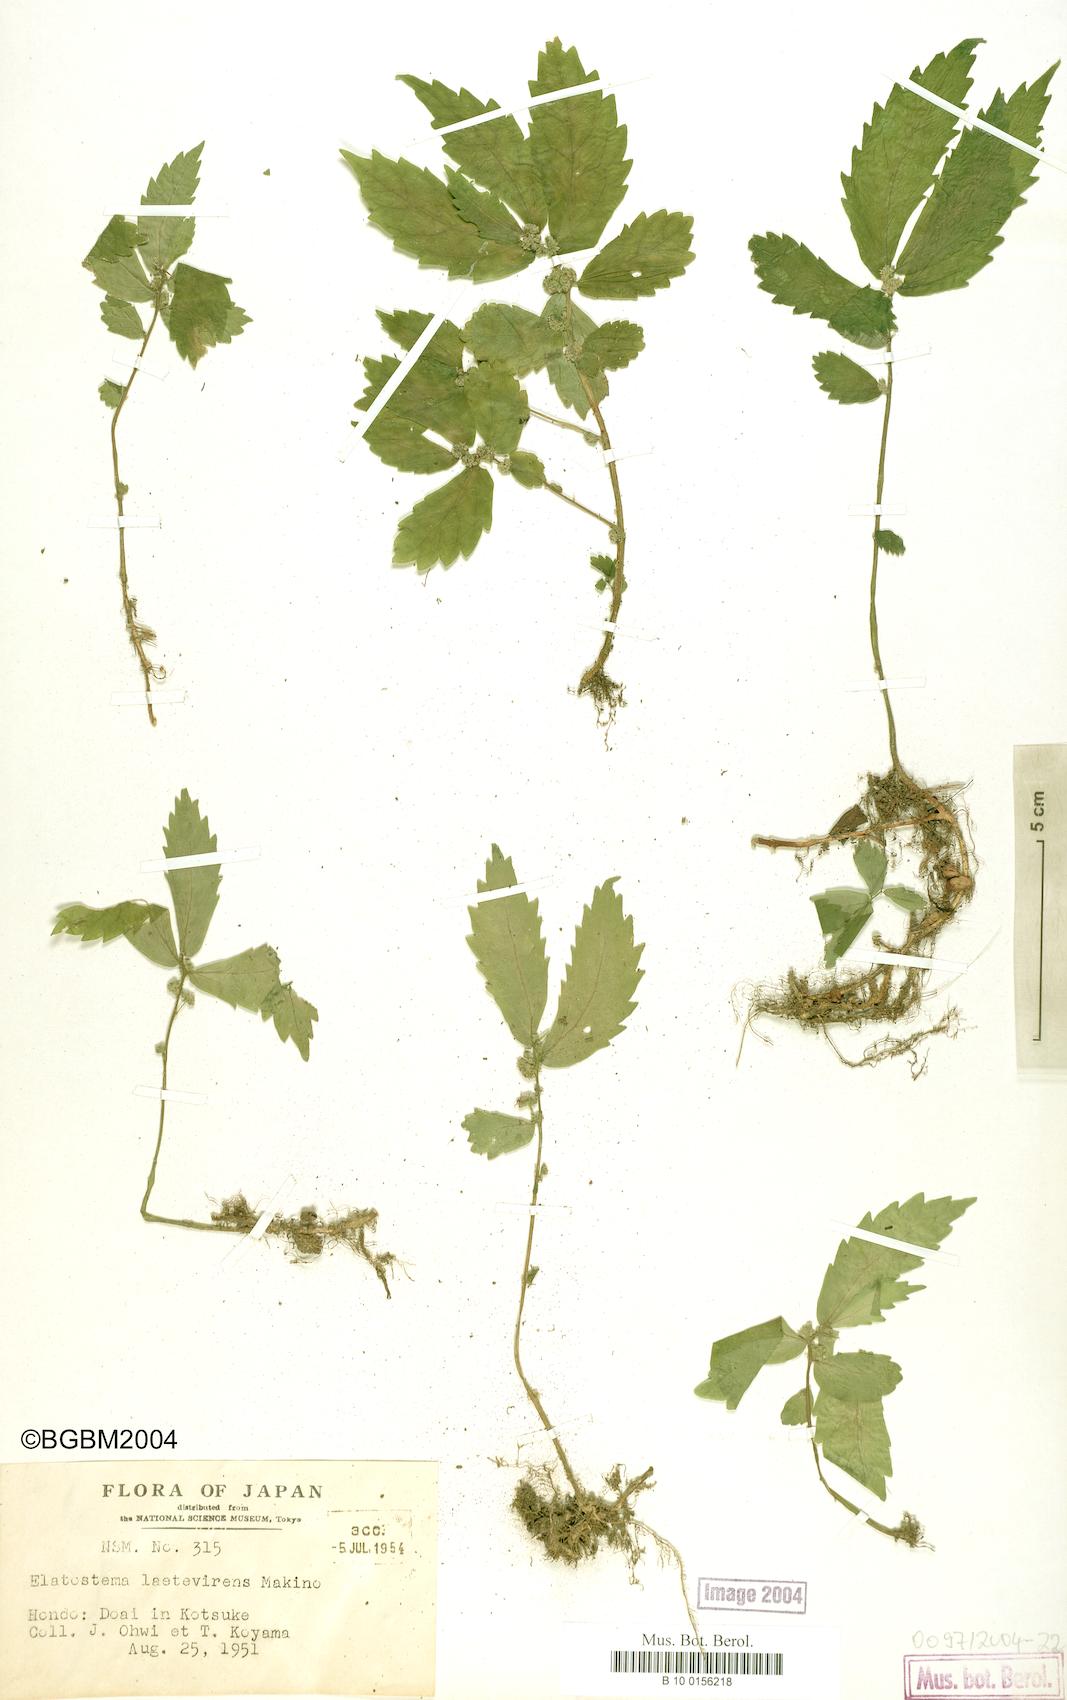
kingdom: Plantae
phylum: Tracheophyta
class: Magnoliopsida
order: Rosales
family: Urticaceae
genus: Elatostema
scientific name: Elatostema laetevirens
